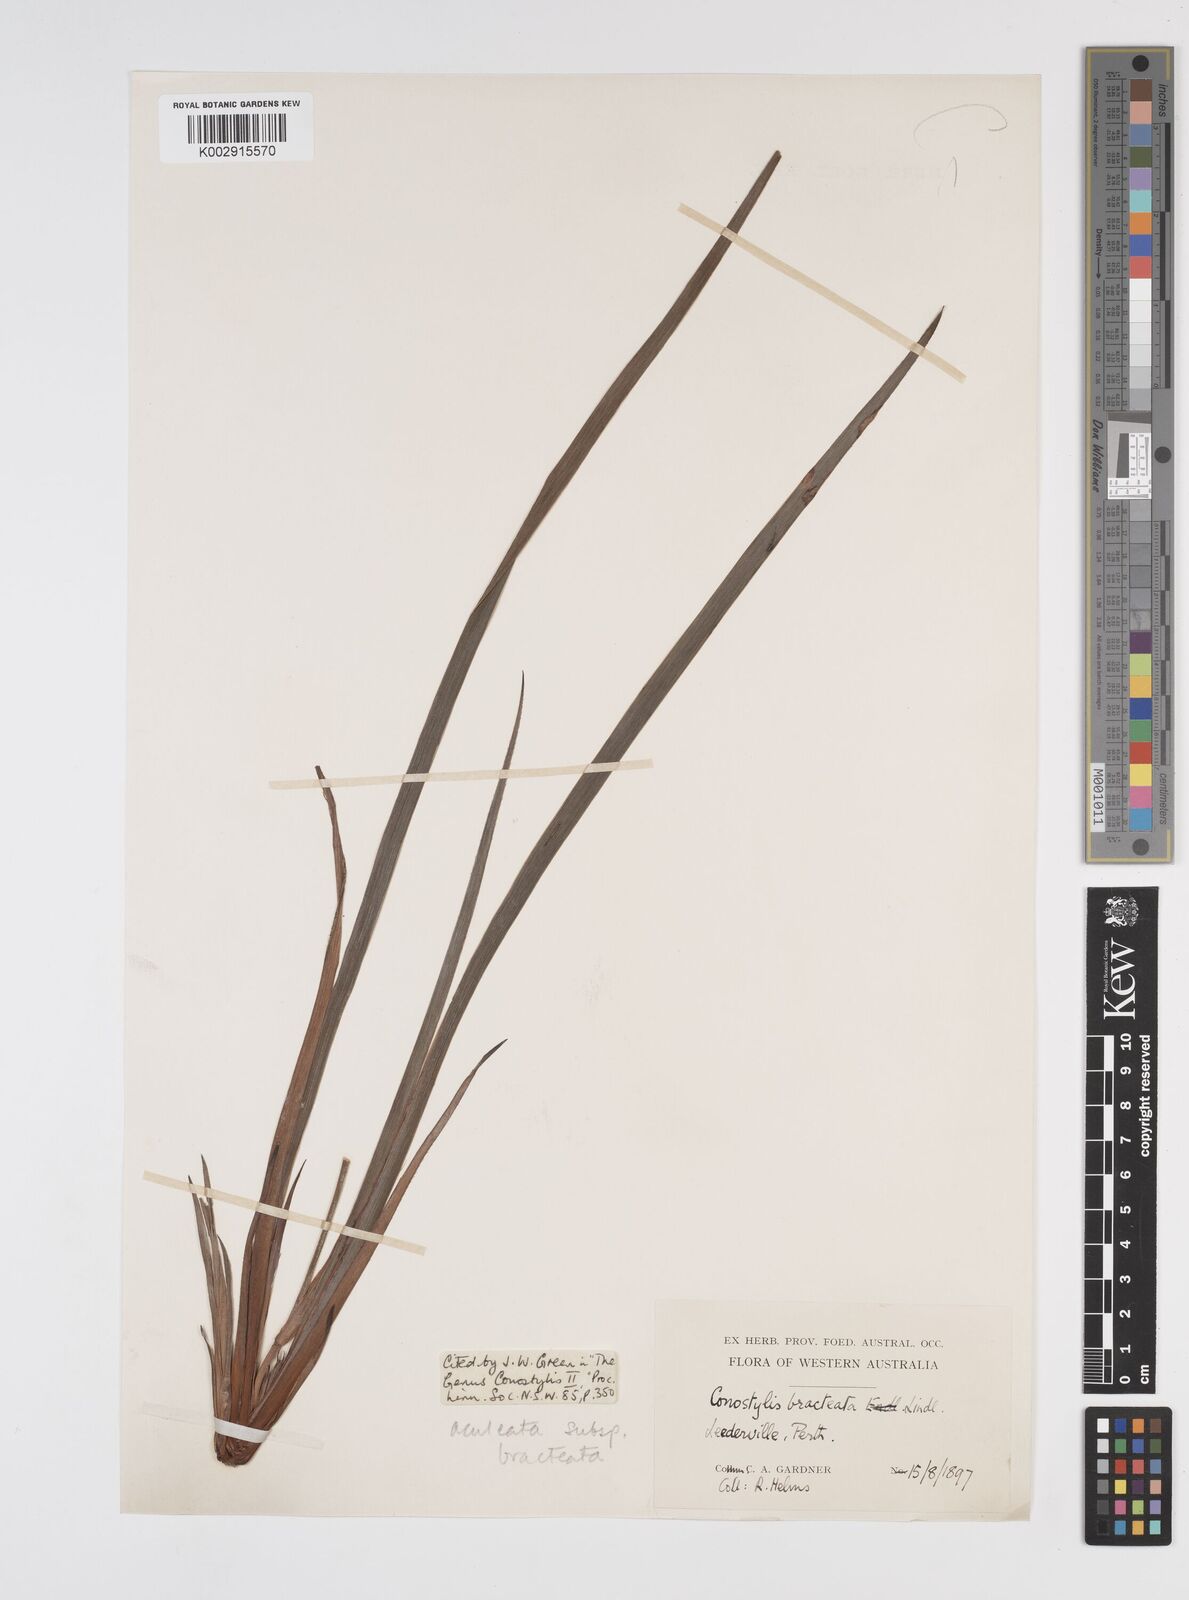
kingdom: Plantae
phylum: Tracheophyta
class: Liliopsida
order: Commelinales
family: Haemodoraceae
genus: Conostylis
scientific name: Conostylis bracteata
